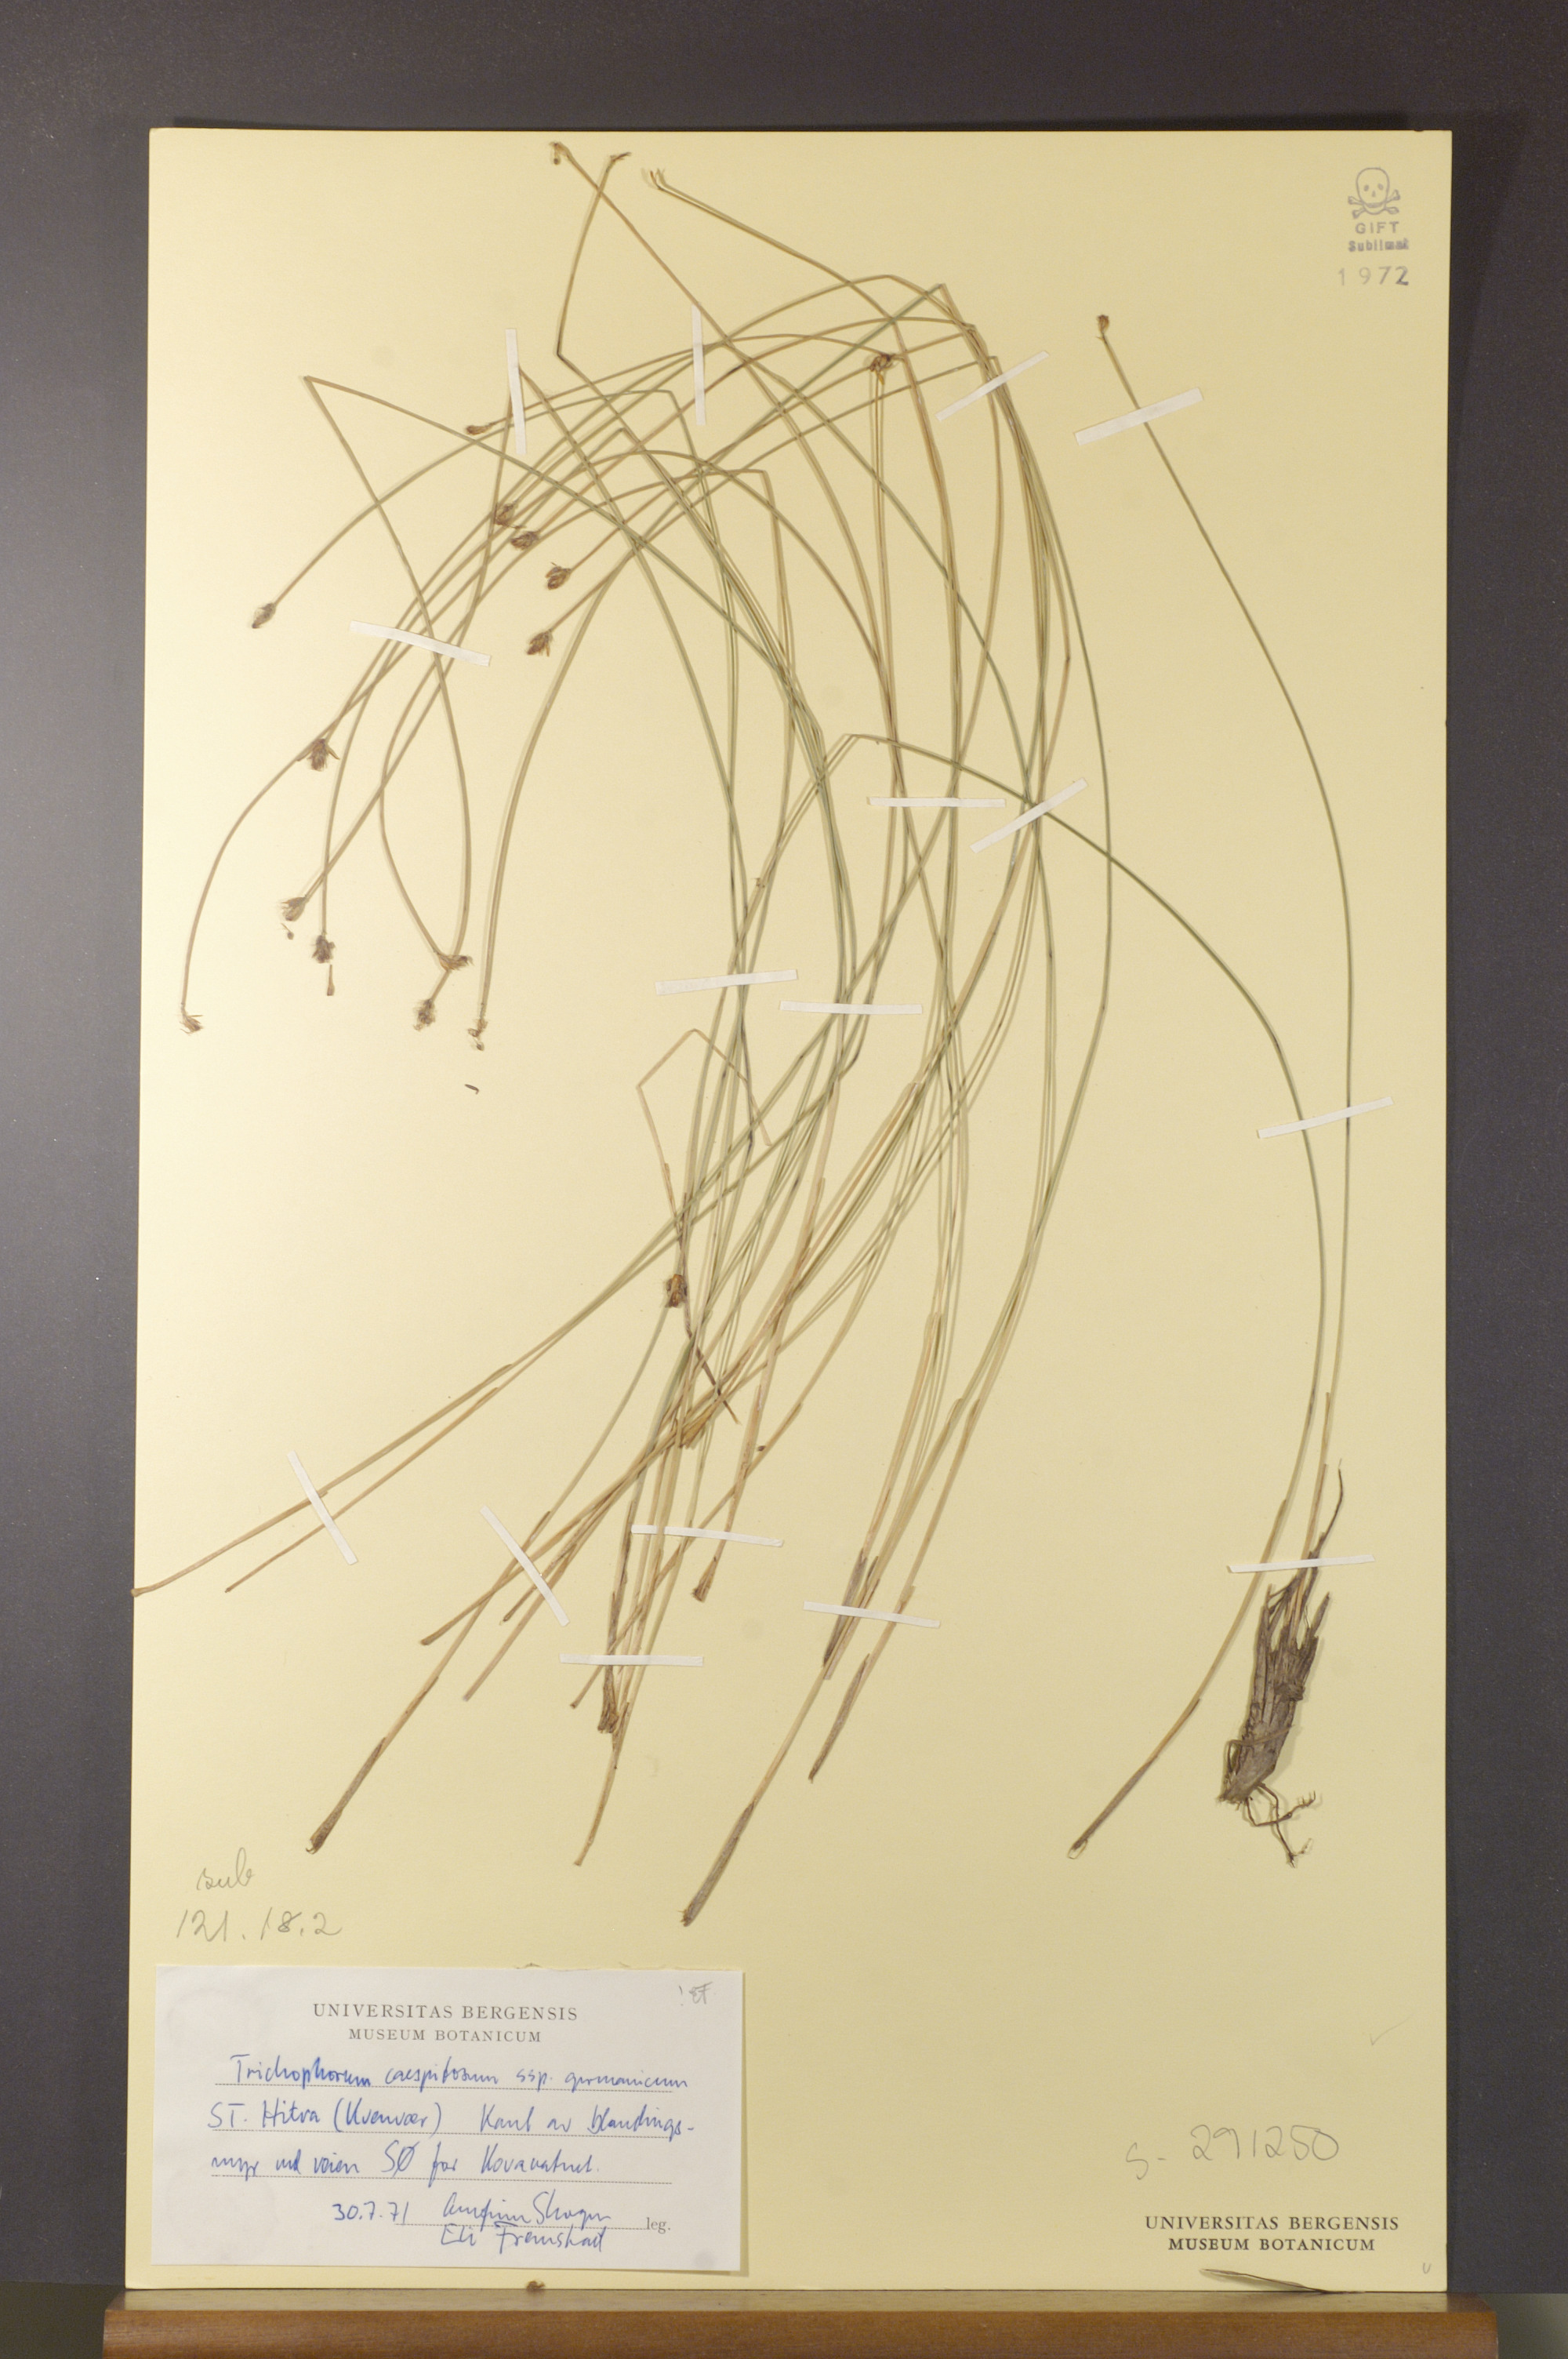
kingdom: Plantae
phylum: Tracheophyta
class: Liliopsida
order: Poales
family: Cyperaceae
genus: Trichophorum
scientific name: Trichophorum cespitosum
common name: Cespitose bulrush
